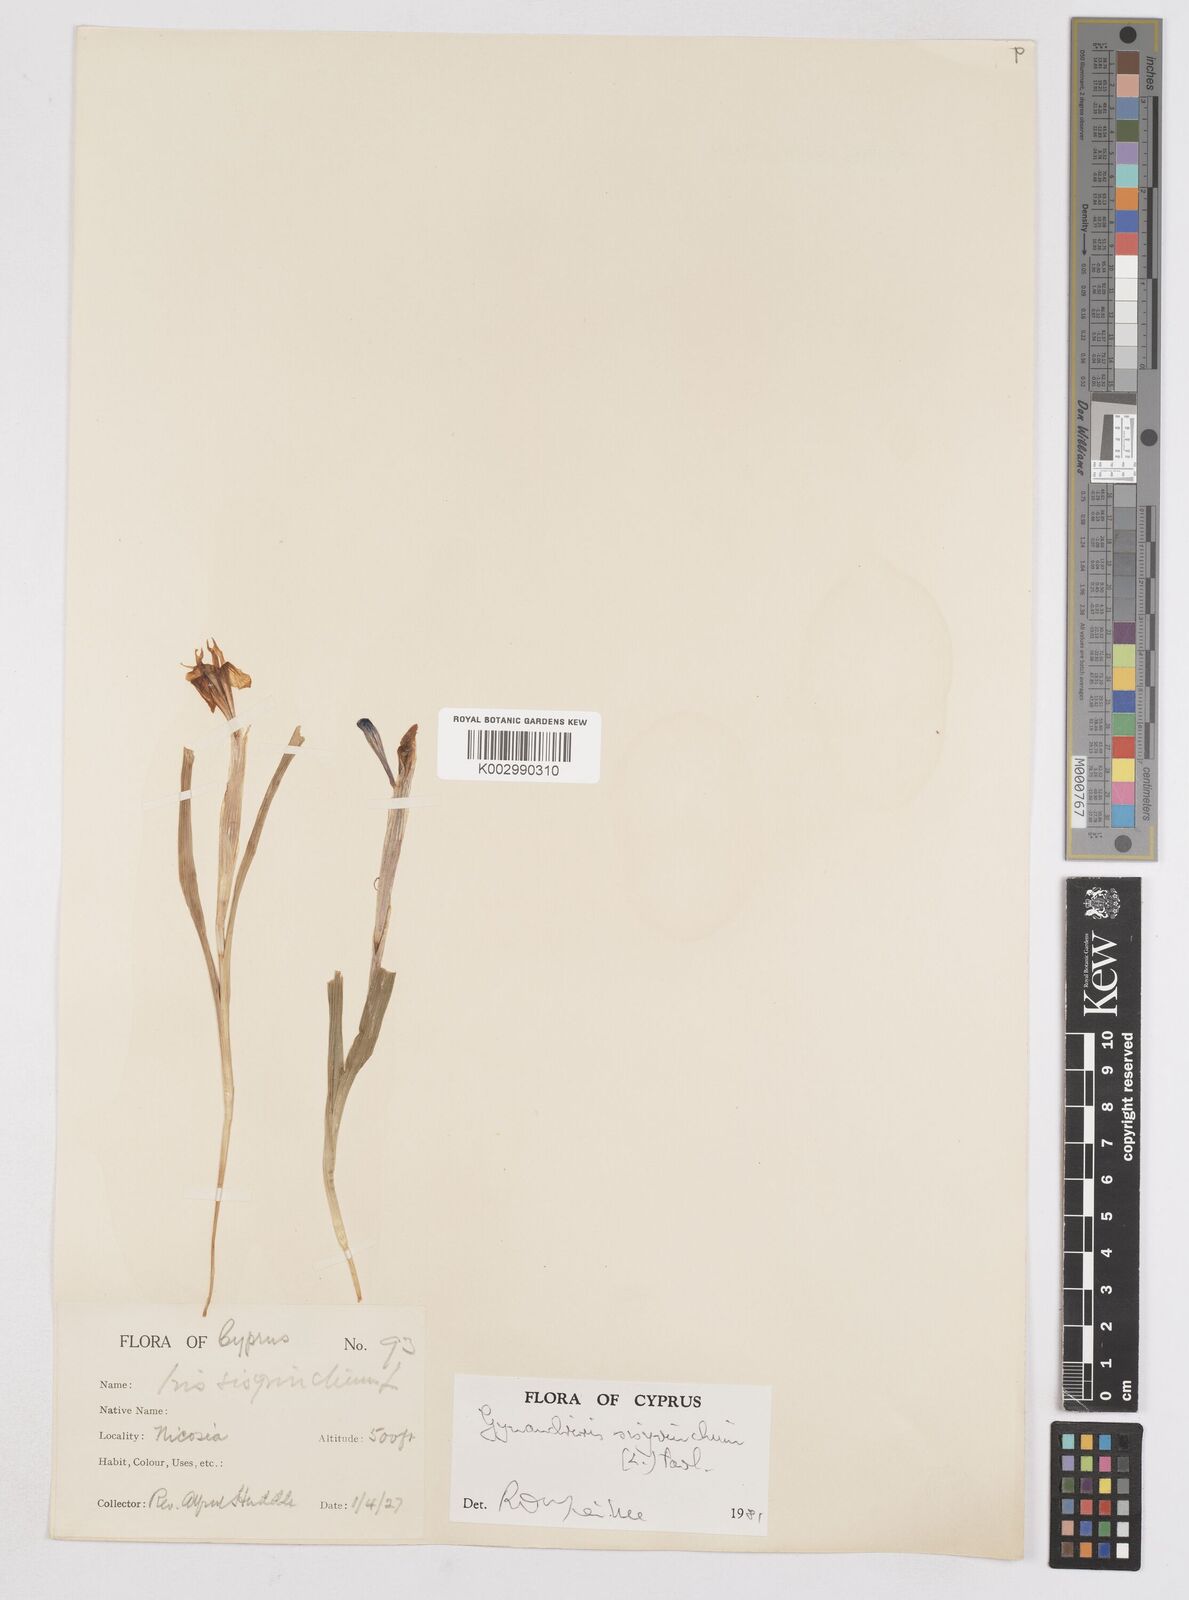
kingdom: Plantae
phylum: Tracheophyta
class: Liliopsida
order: Asparagales
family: Iridaceae
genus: Moraea
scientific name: Moraea sisyrinchium
